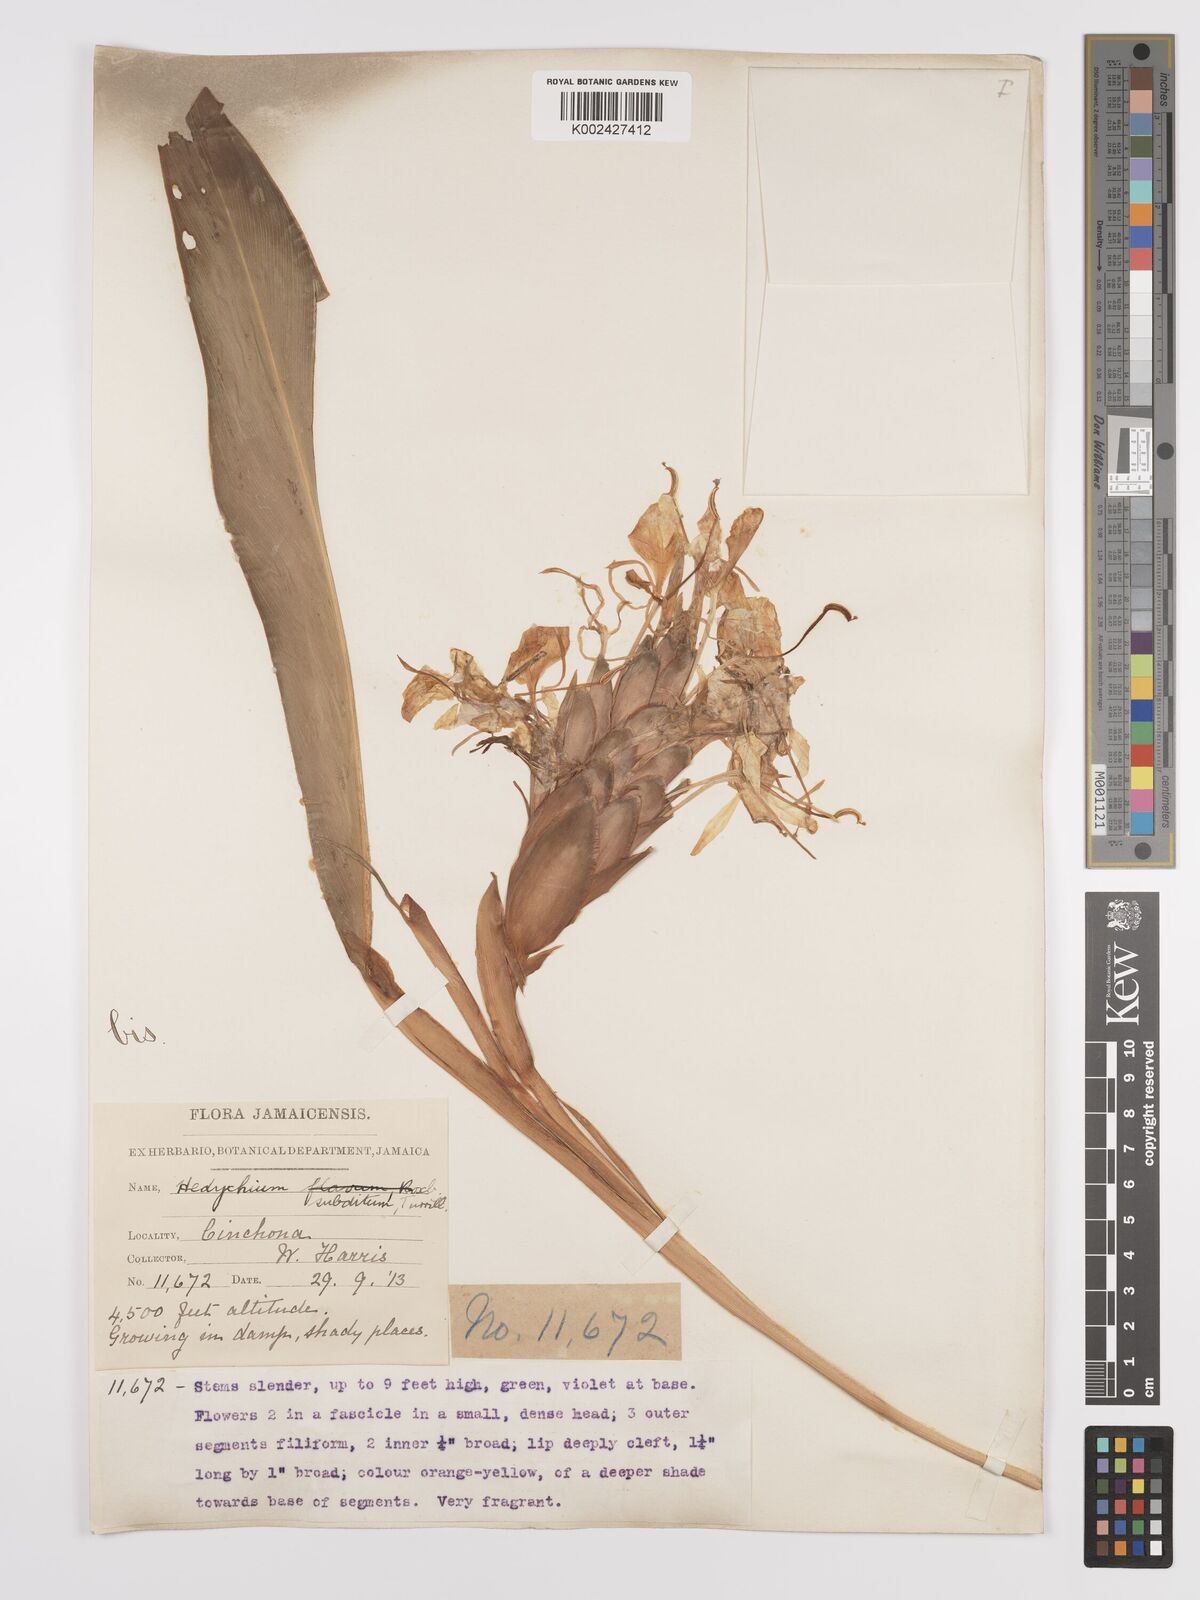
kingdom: Plantae
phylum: Tracheophyta
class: Liliopsida
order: Zingiberales
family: Zingiberaceae
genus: Hedychium
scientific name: Hedychium flavescens
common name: Yellow ginger
